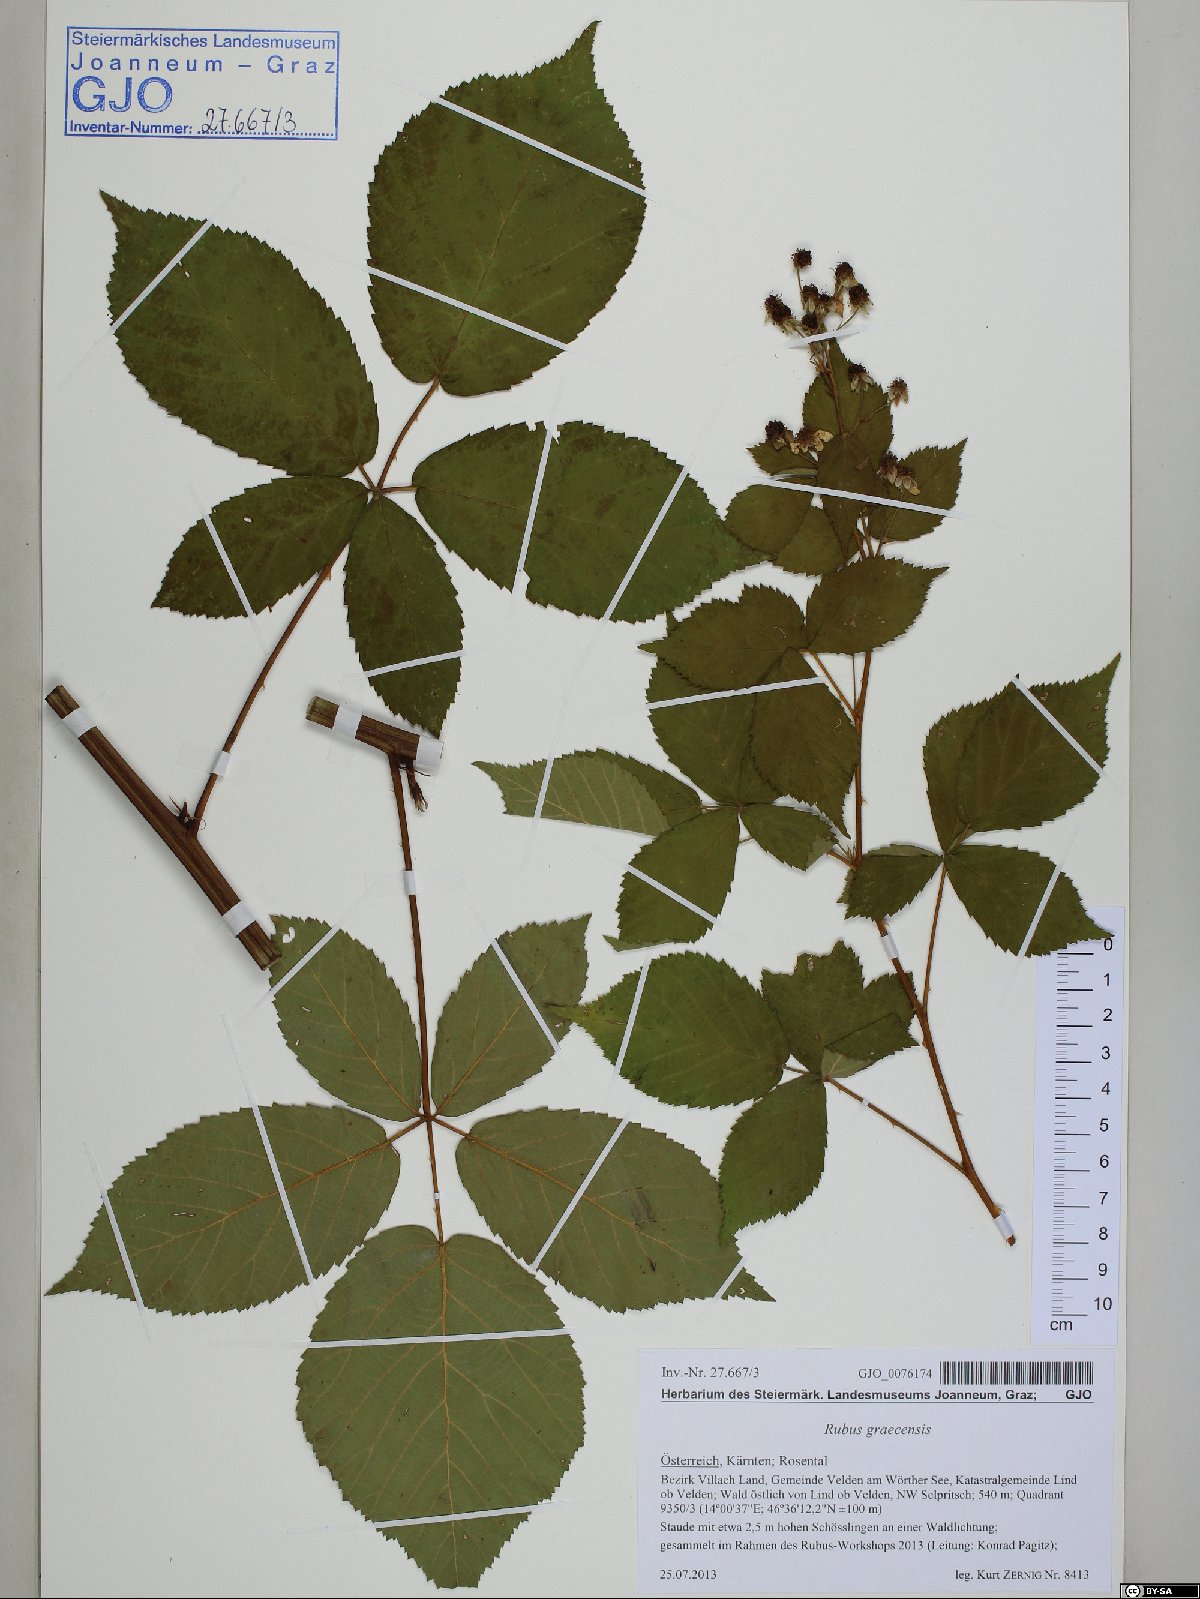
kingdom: Plantae
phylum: Tracheophyta
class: Magnoliopsida
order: Rosales
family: Rosaceae
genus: Rubus
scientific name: Rubus graecensis
